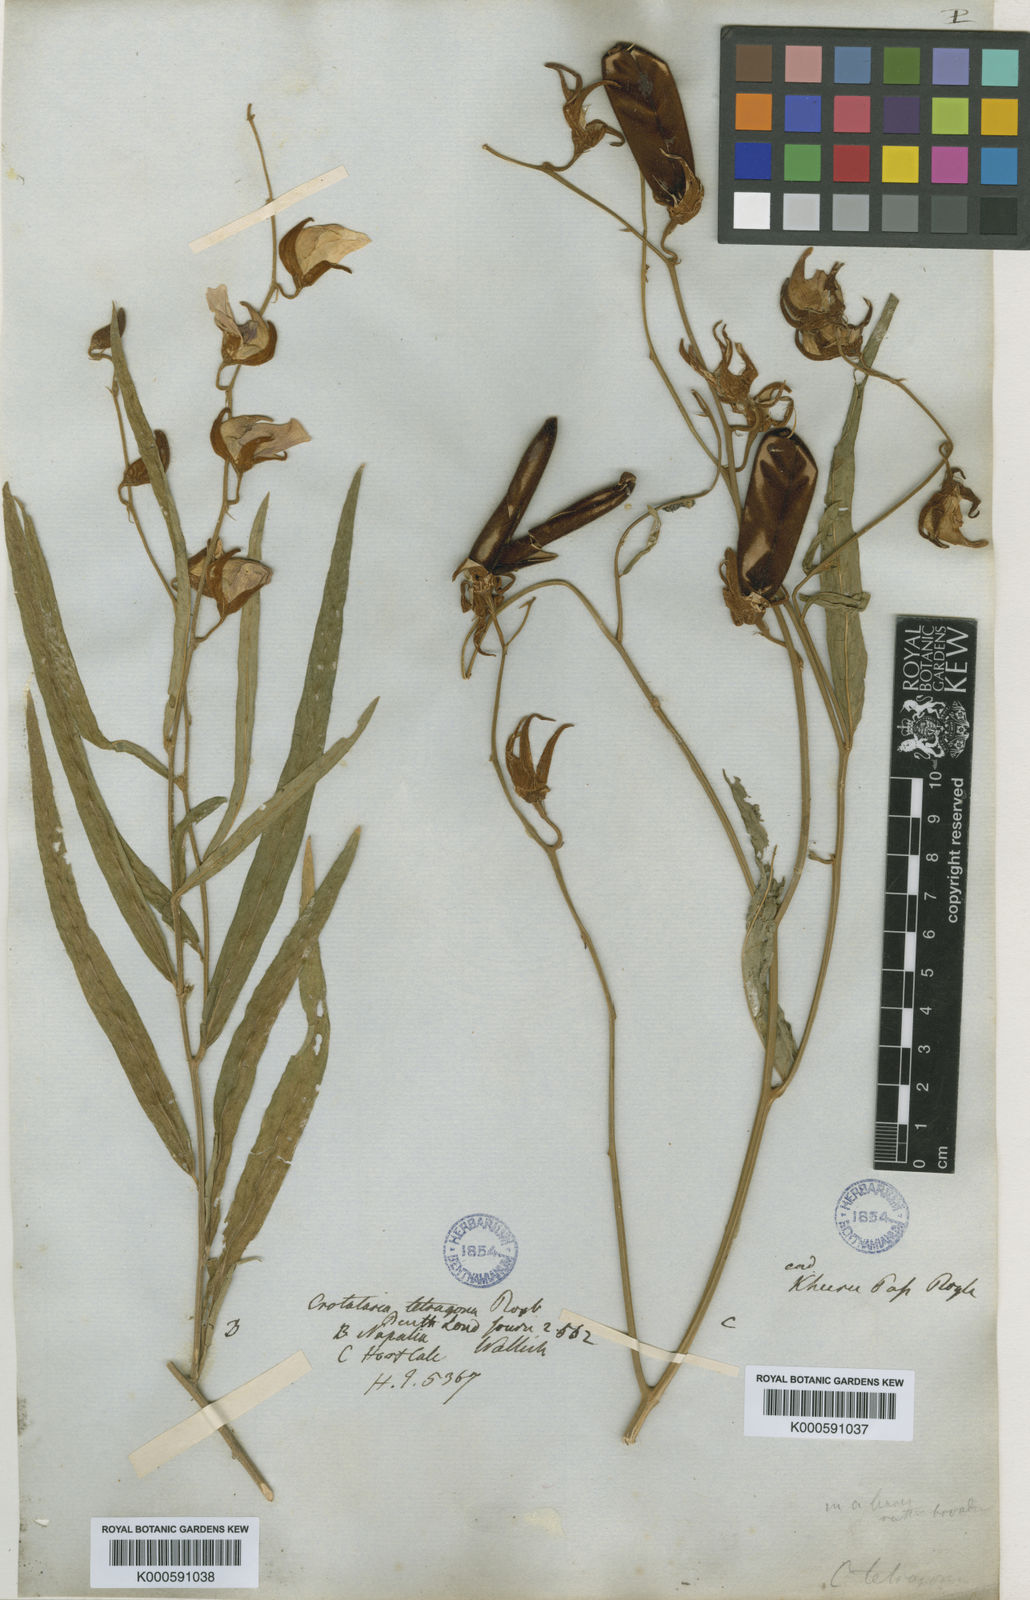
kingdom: Plantae
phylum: Tracheophyta
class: Magnoliopsida
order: Fabales
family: Fabaceae
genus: Crotalaria
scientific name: Crotalaria tetragona
